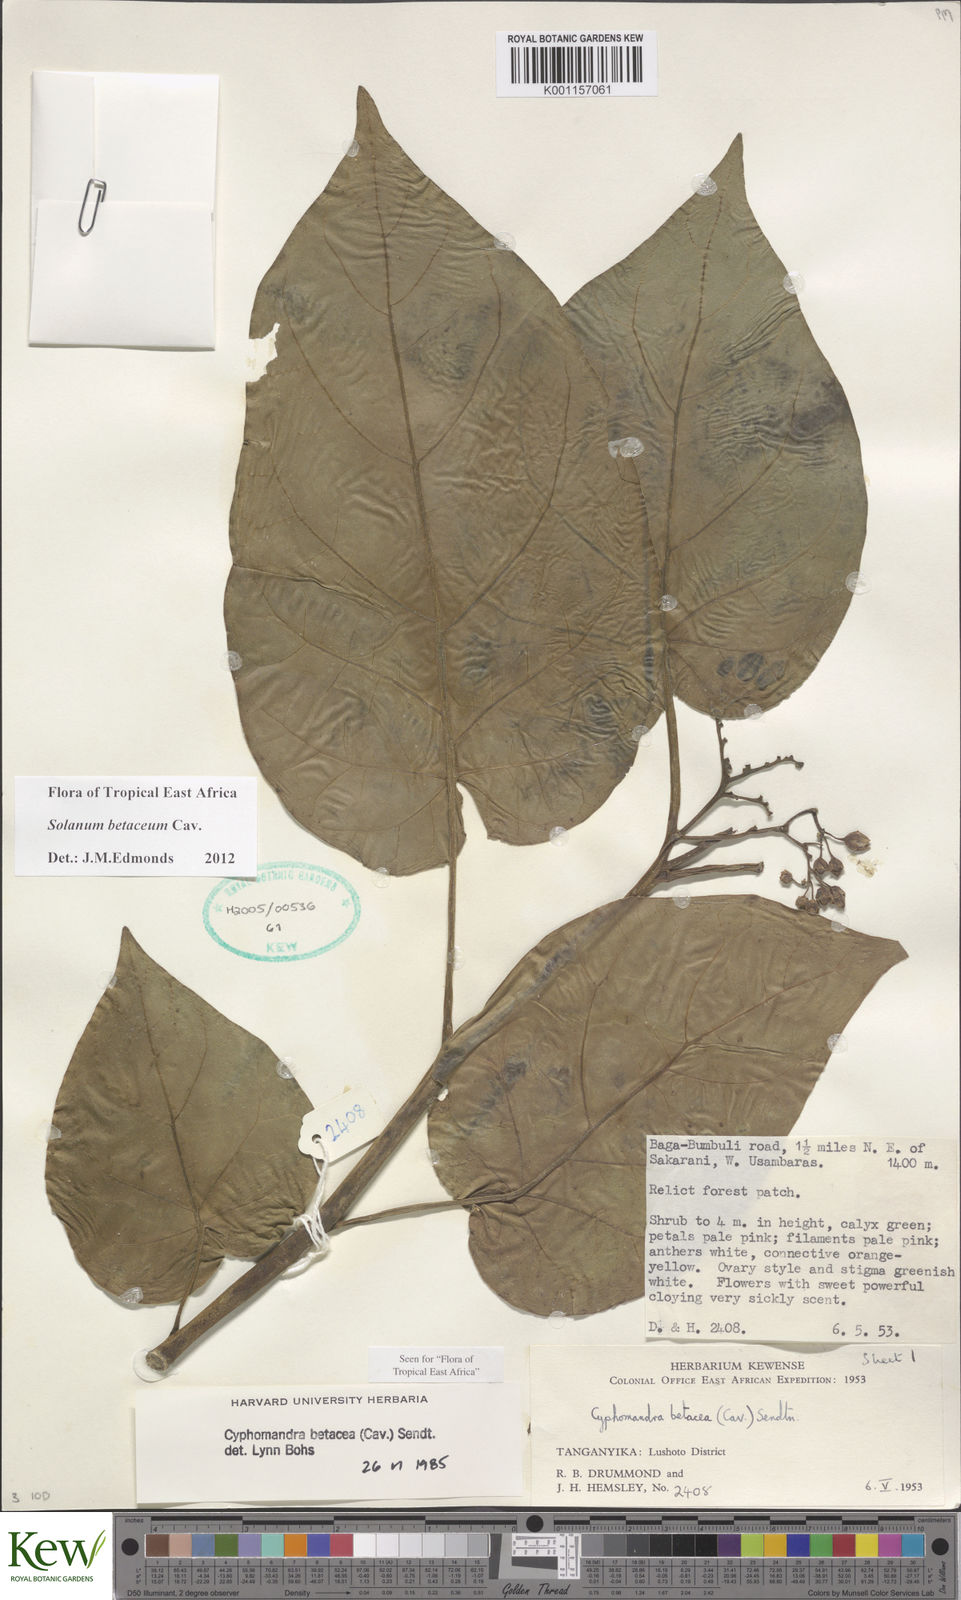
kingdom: Plantae
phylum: Tracheophyta
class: Magnoliopsida
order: Solanales
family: Solanaceae
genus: Solanum
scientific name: Solanum betaceum
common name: Tamarillo
